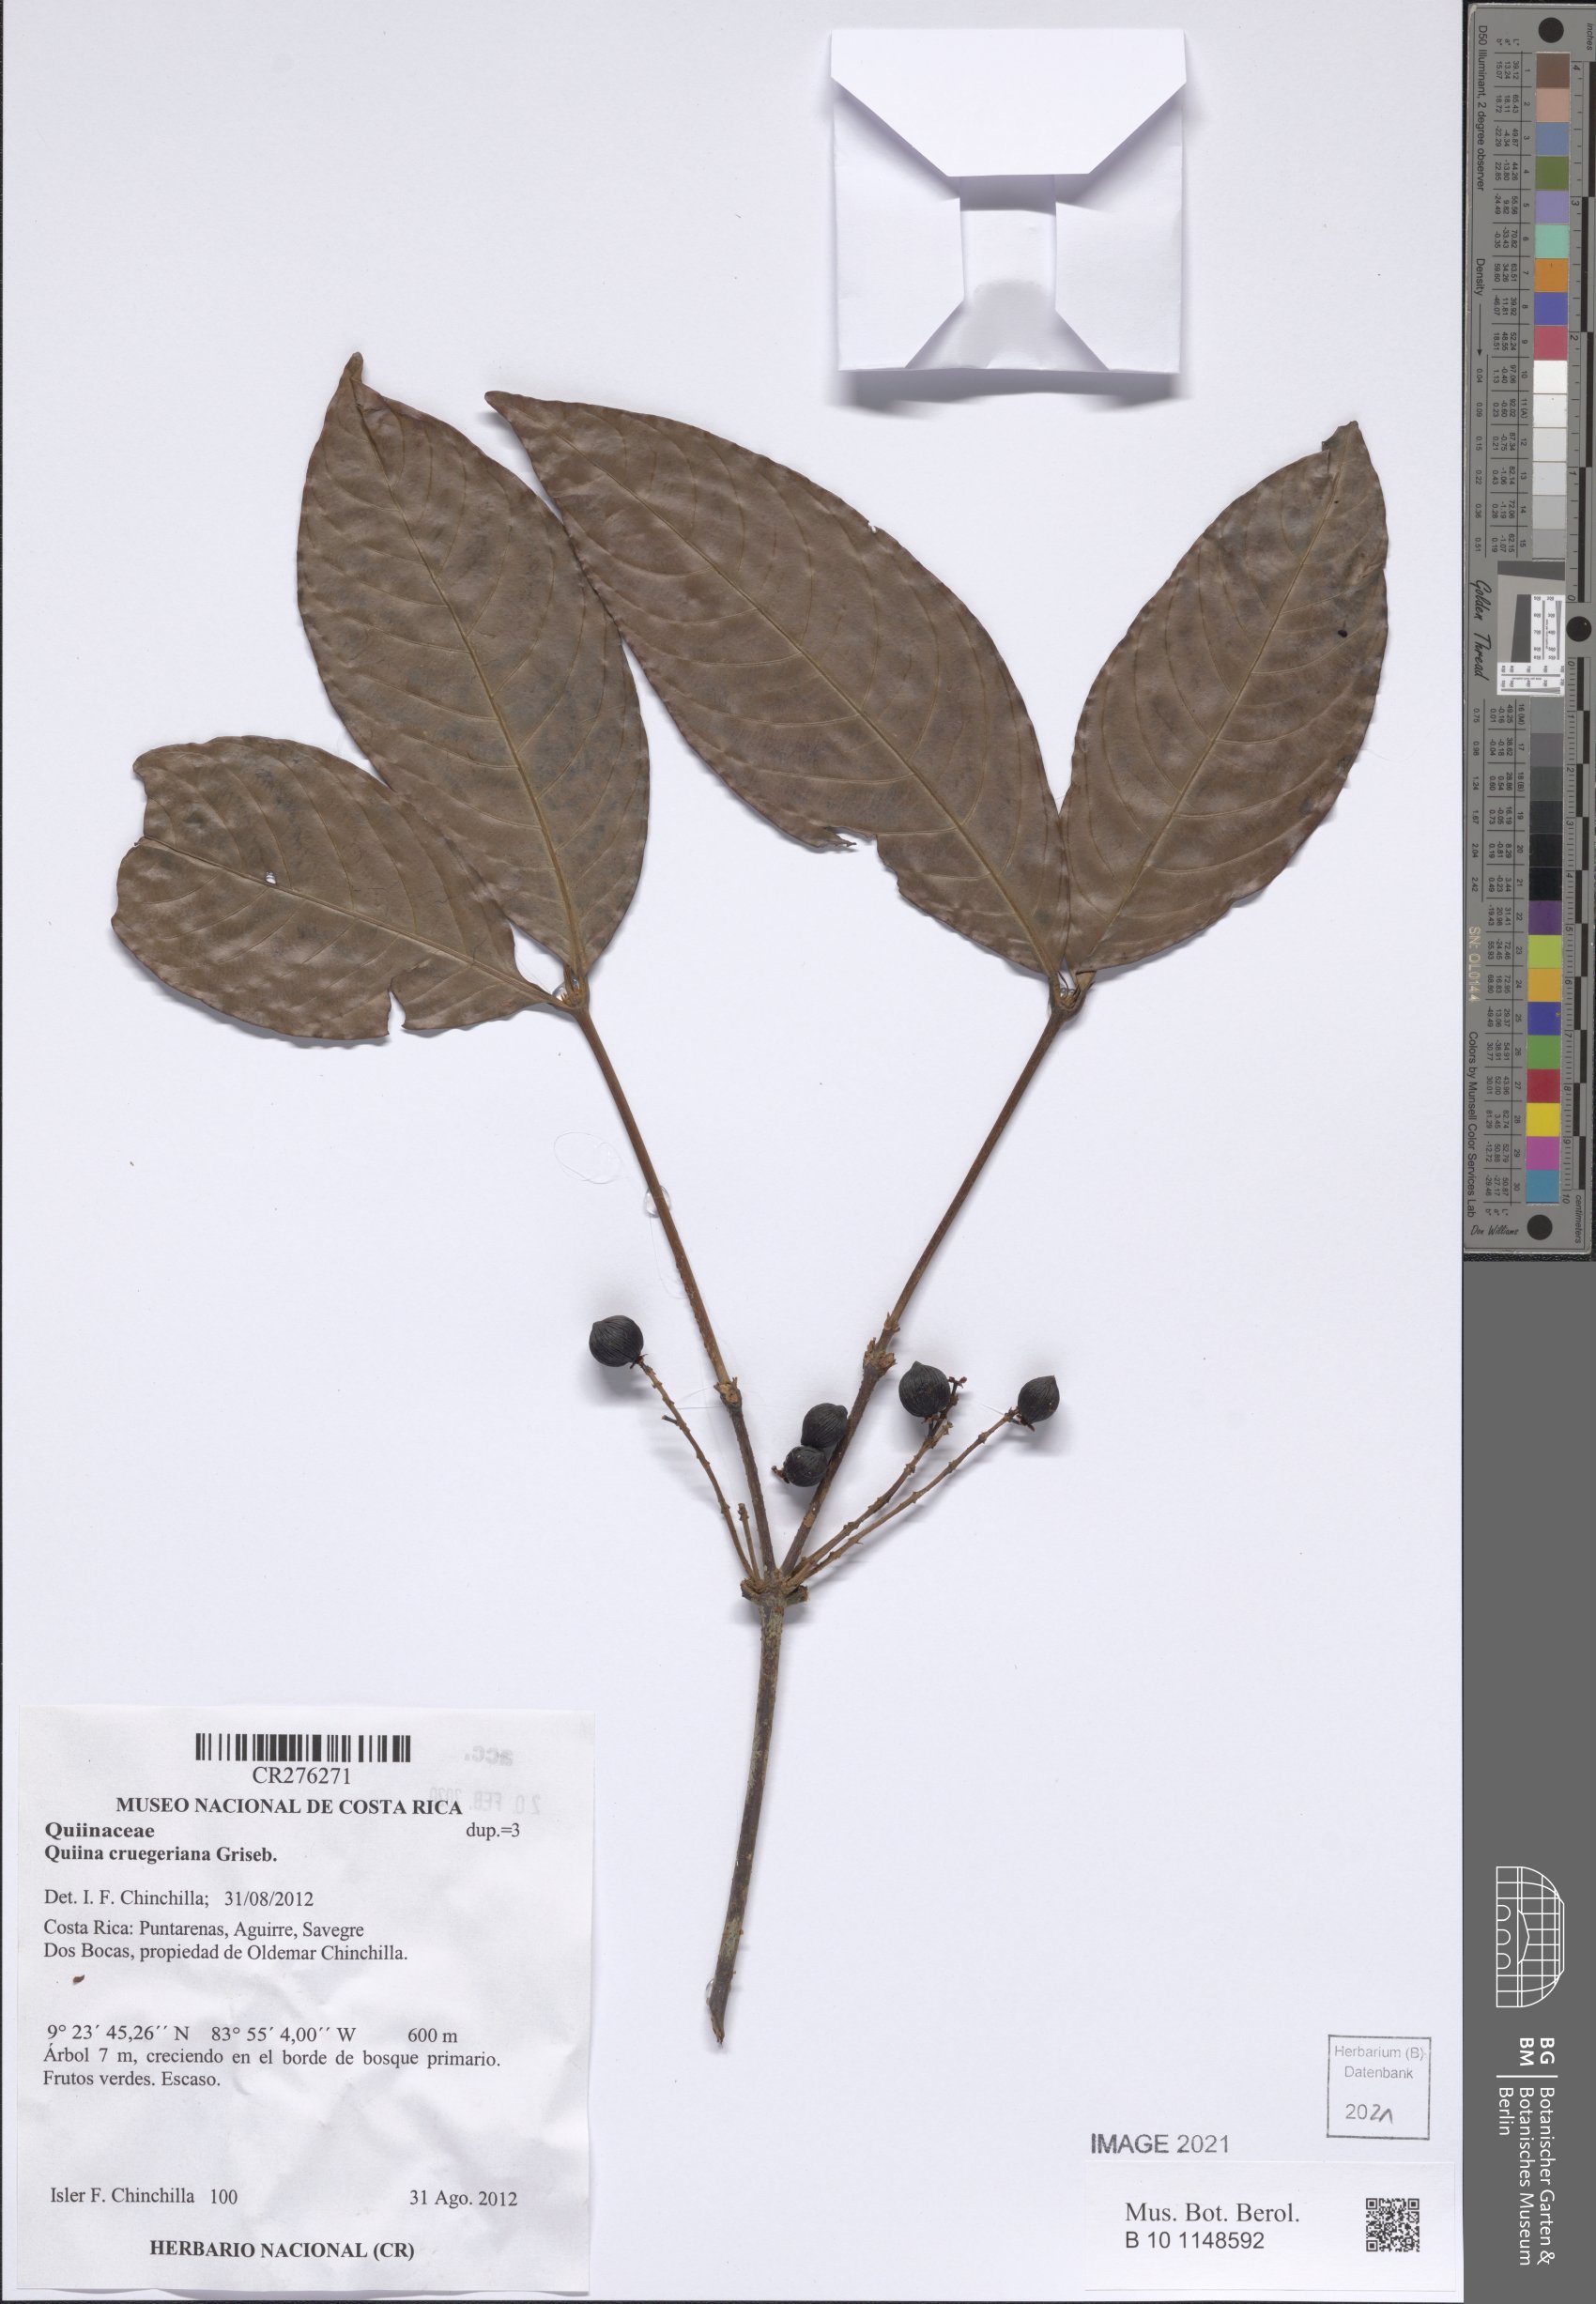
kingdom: Plantae
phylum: Tracheophyta
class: Magnoliopsida
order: Malpighiales
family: Quiinaceae
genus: Quiina
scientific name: Quiina cruegeriana
